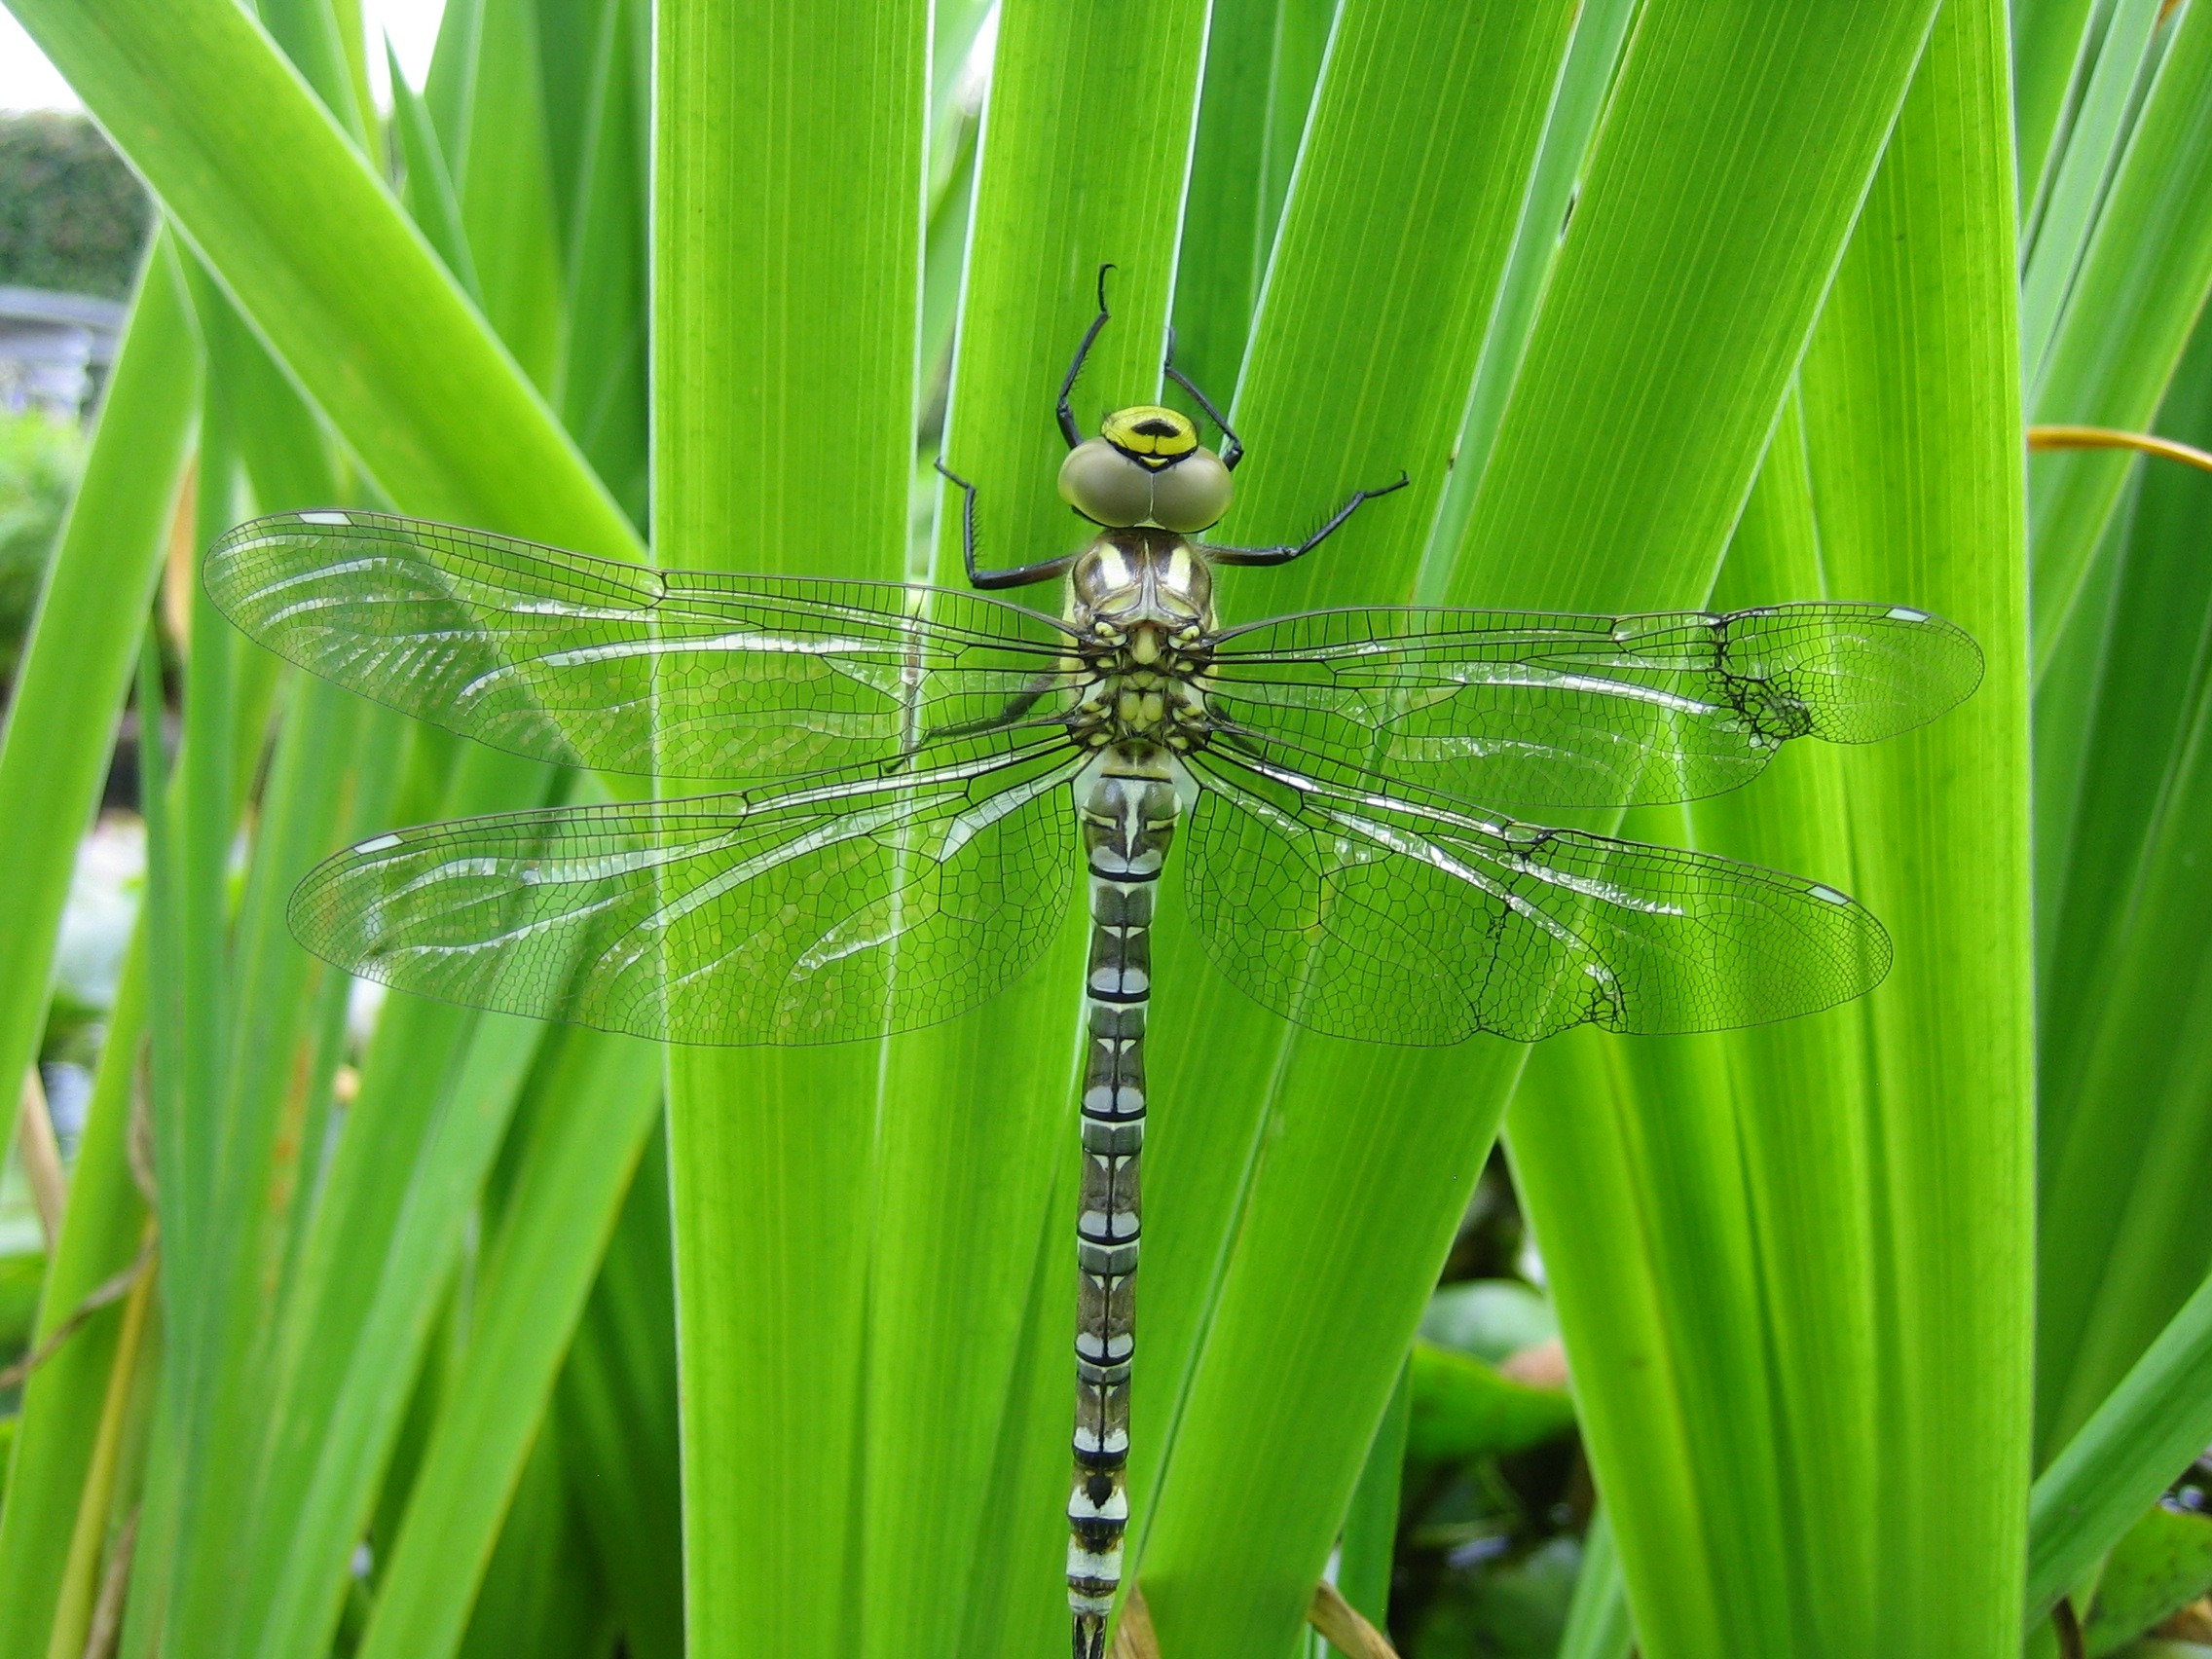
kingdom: Animalia
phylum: Arthropoda
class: Insecta
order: Odonata
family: Aeshnidae
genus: Aeshna
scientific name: Aeshna cyanea
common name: Blå mosaikguldsmed
